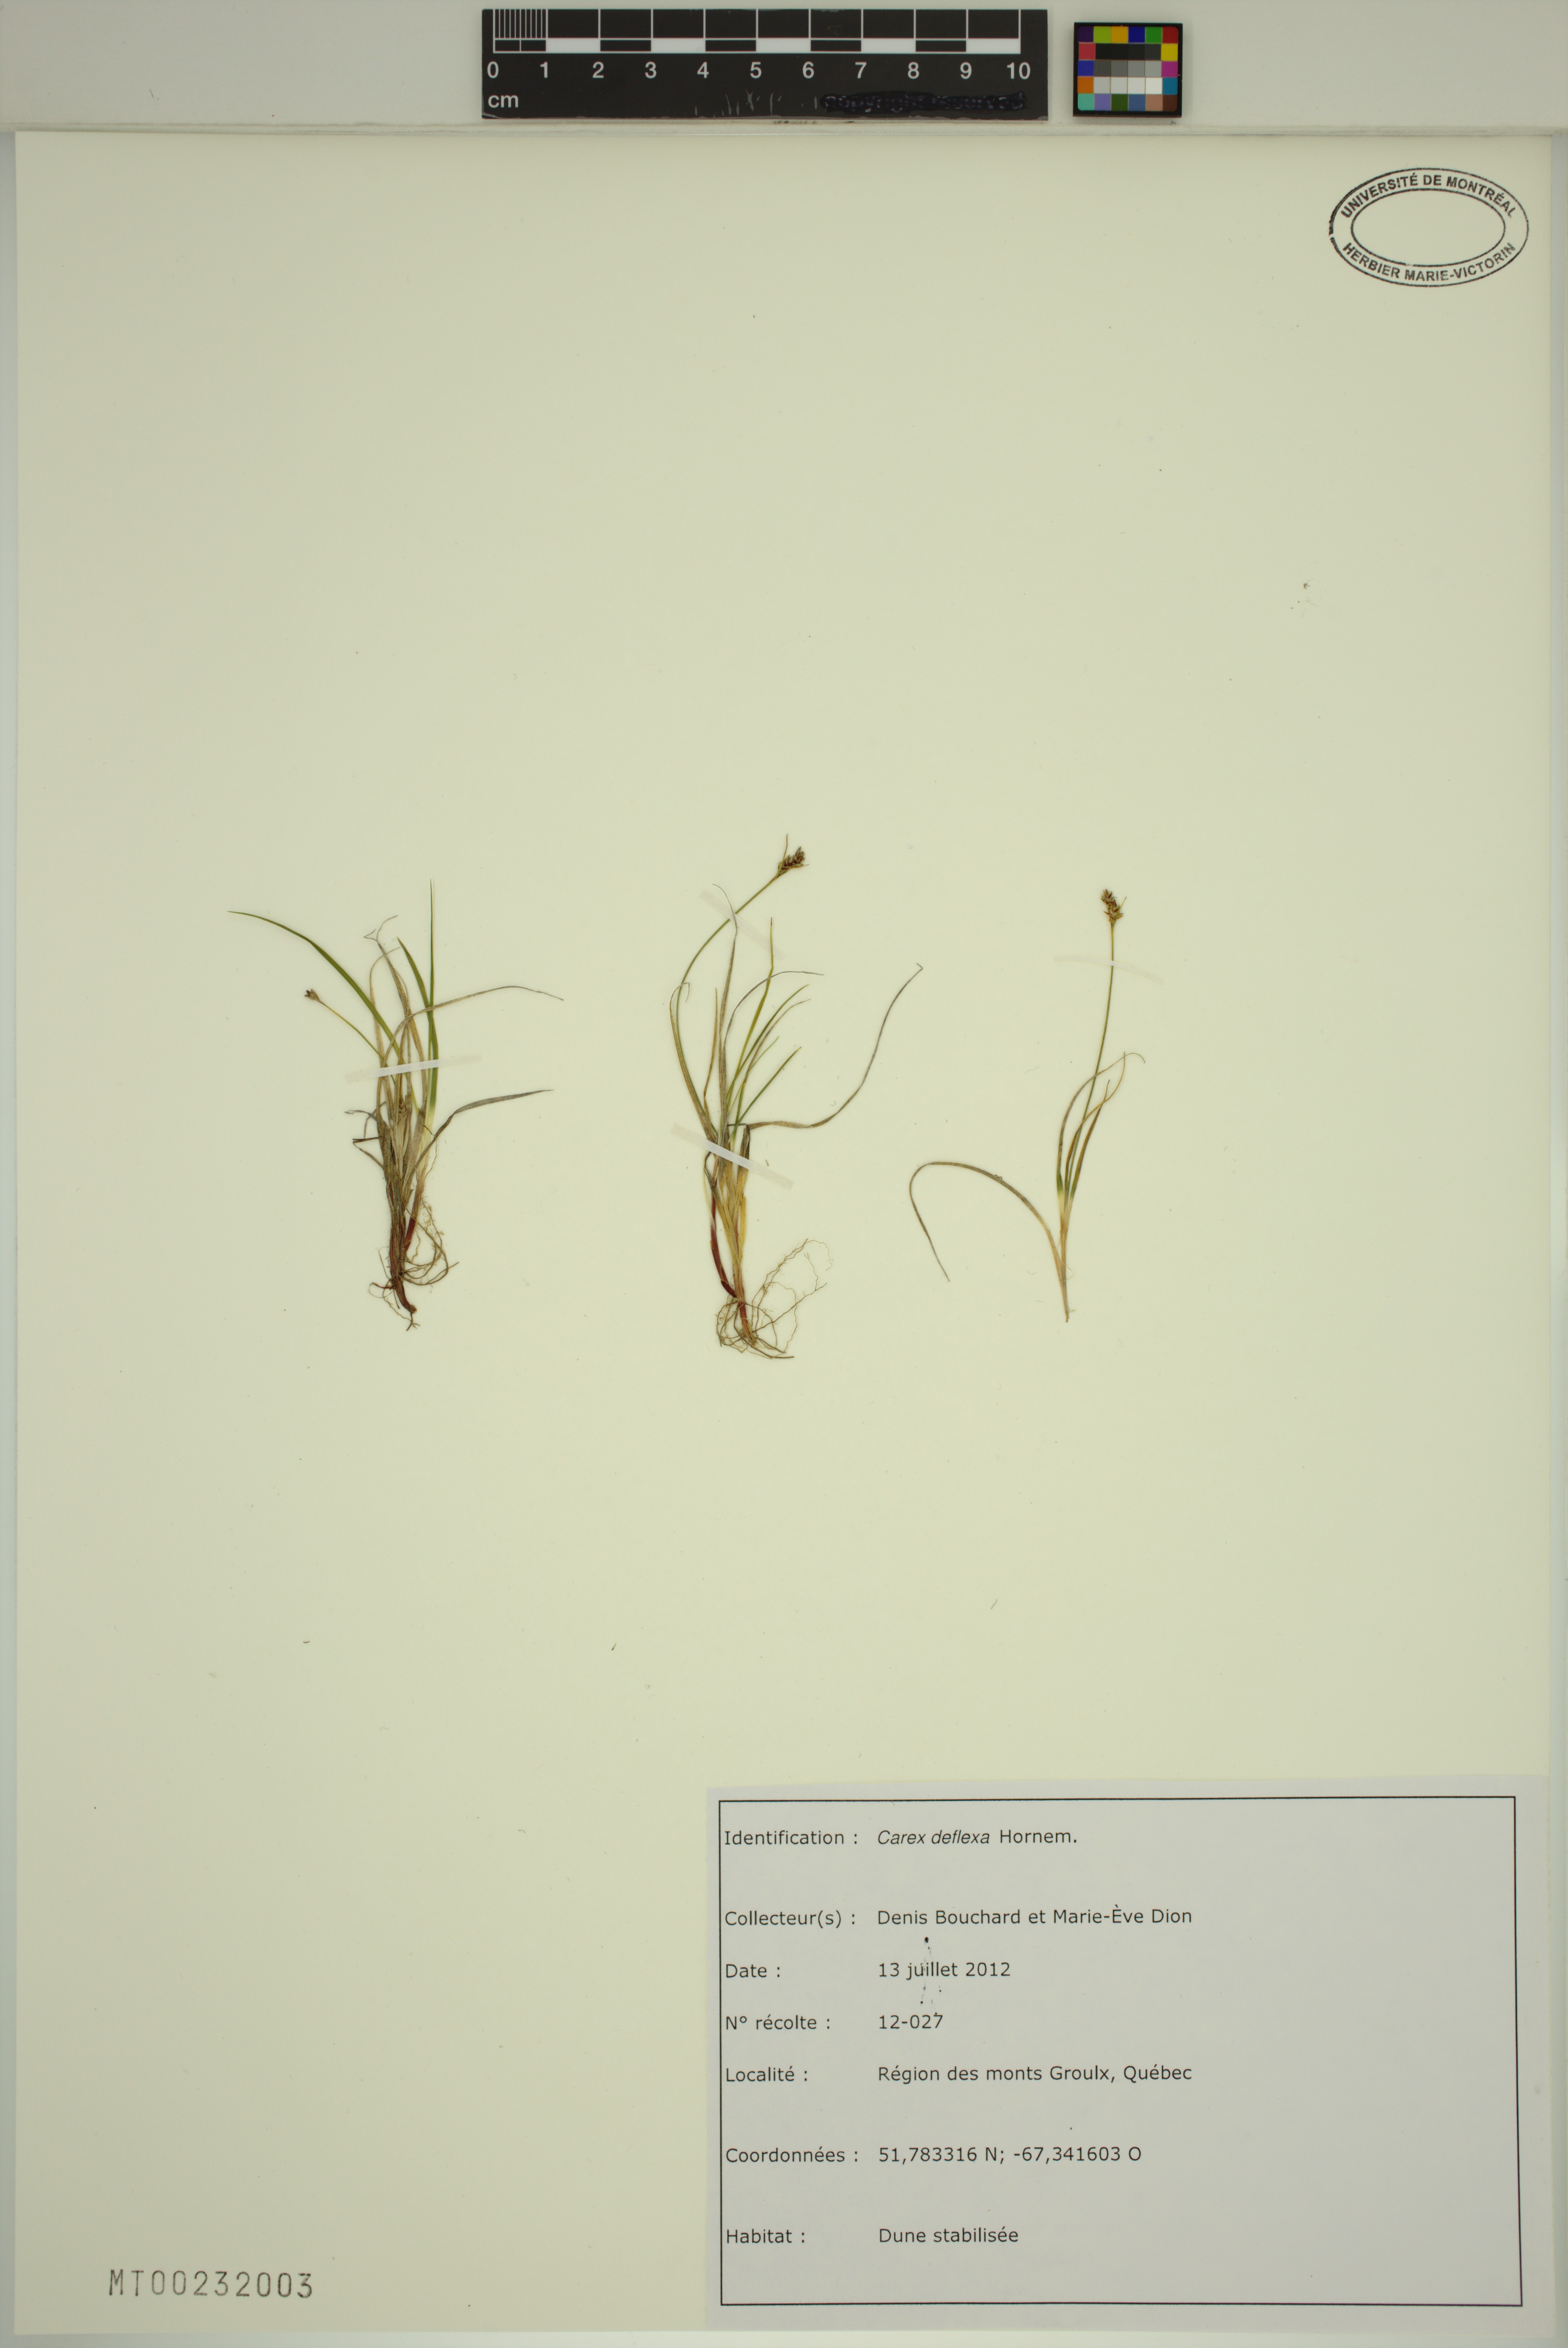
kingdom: Plantae
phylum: Tracheophyta
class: Liliopsida
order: Poales
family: Cyperaceae
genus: Carex
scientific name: Carex deflexa
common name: Bent northern sedge
